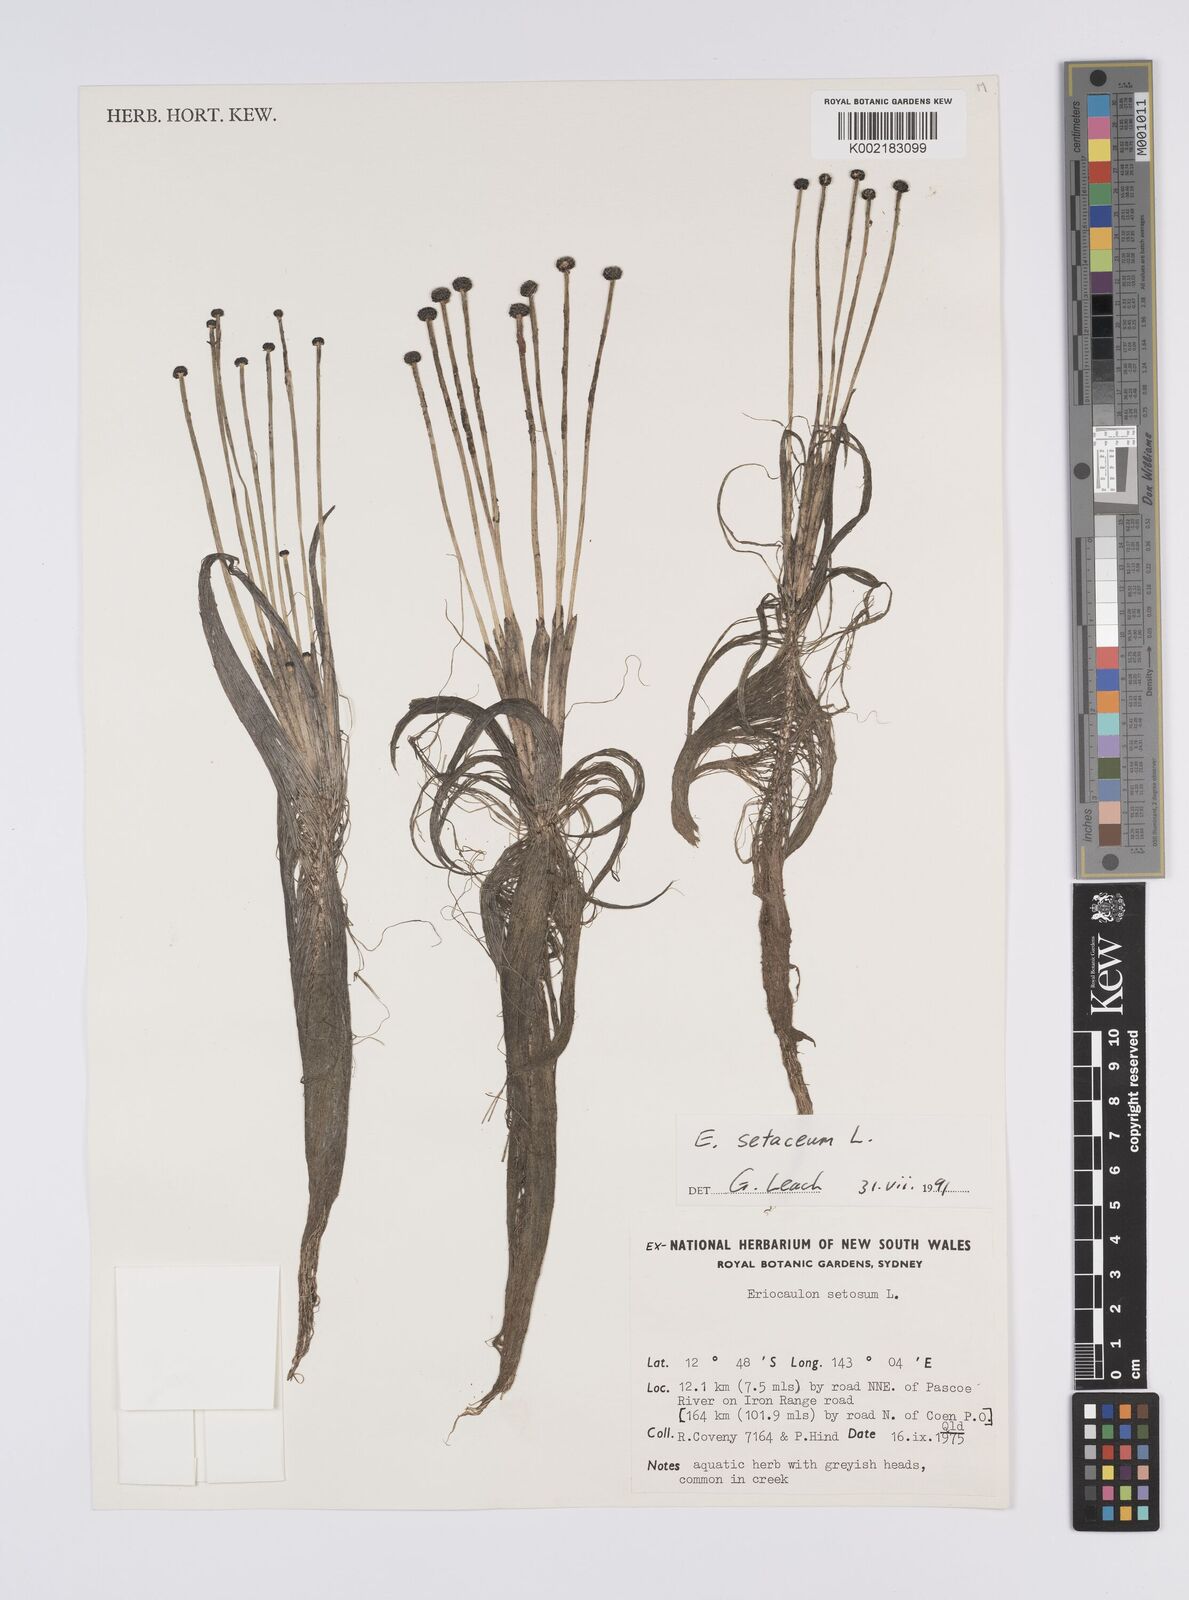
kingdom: Plantae
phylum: Tracheophyta
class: Liliopsida
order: Poales
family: Eriocaulaceae
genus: Eriocaulon
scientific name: Eriocaulon setaceum
